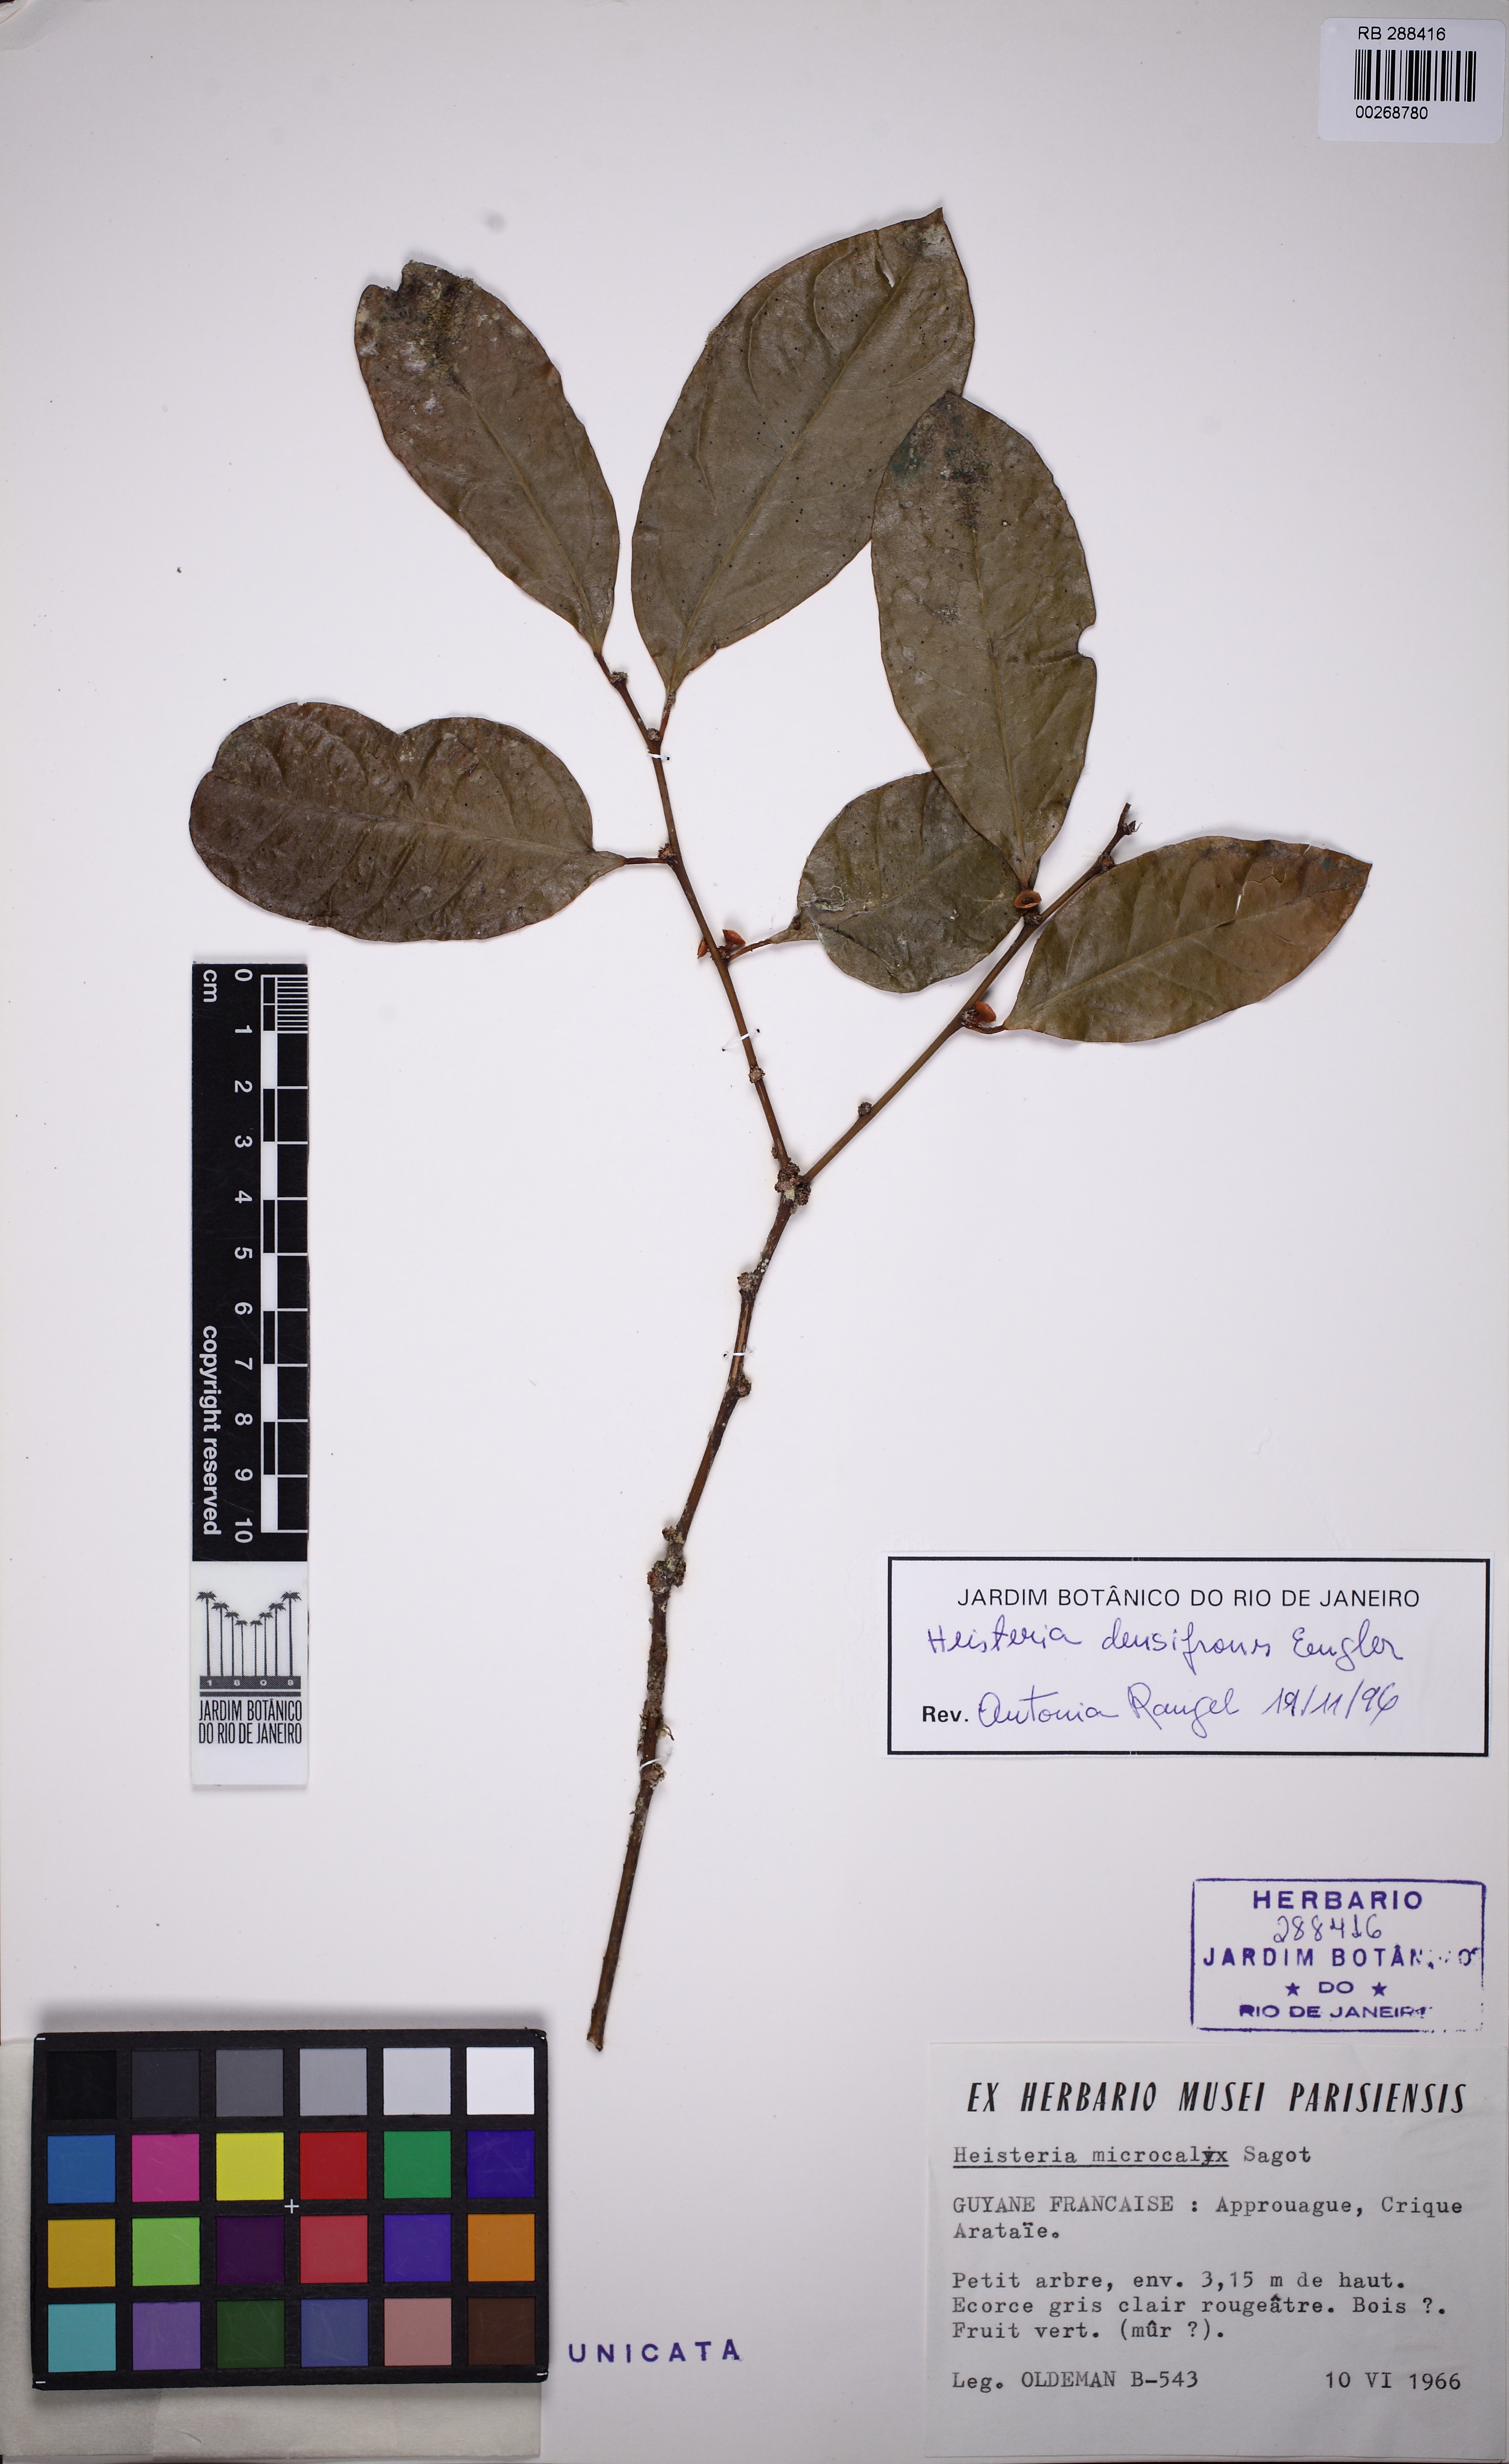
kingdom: Plantae
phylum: Tracheophyta
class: Magnoliopsida
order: Santalales
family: Erythropalaceae
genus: Heisteria
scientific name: Heisteria densifrons
